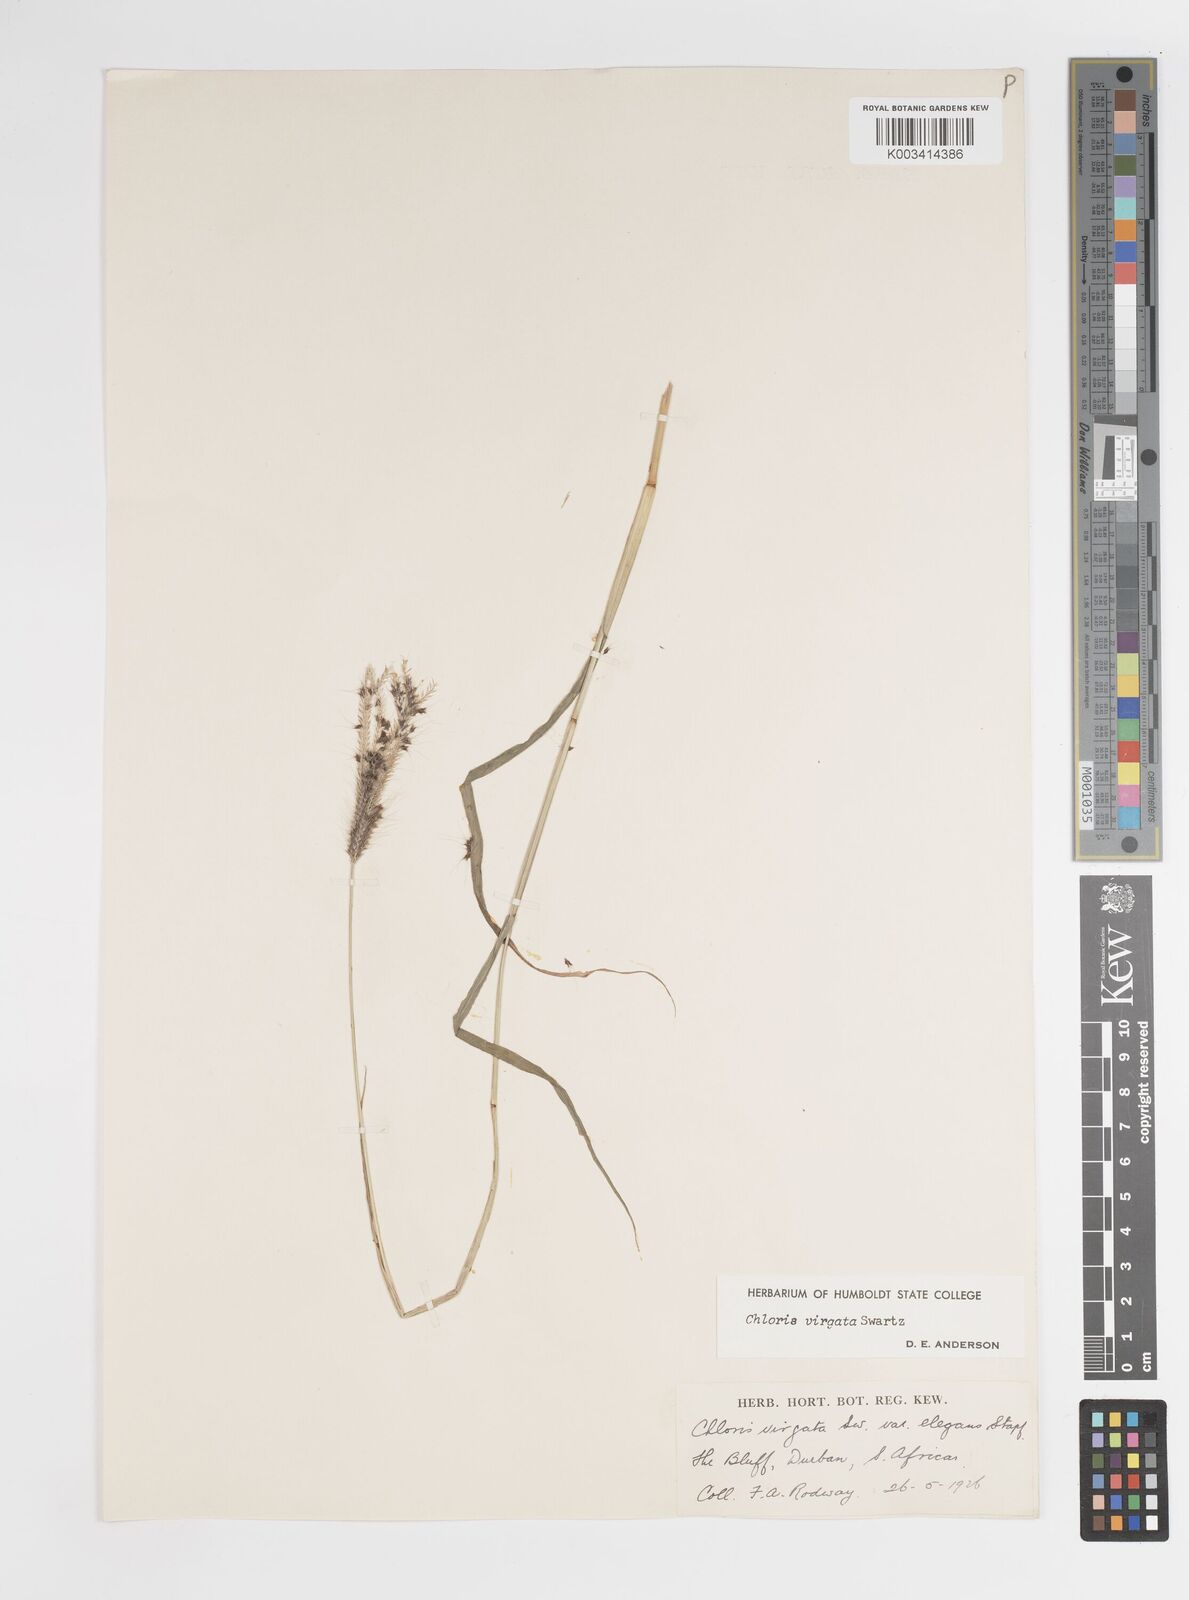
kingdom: Plantae
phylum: Tracheophyta
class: Liliopsida
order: Poales
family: Poaceae
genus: Chloris
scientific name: Chloris virgata
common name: Feathery rhodes-grass
